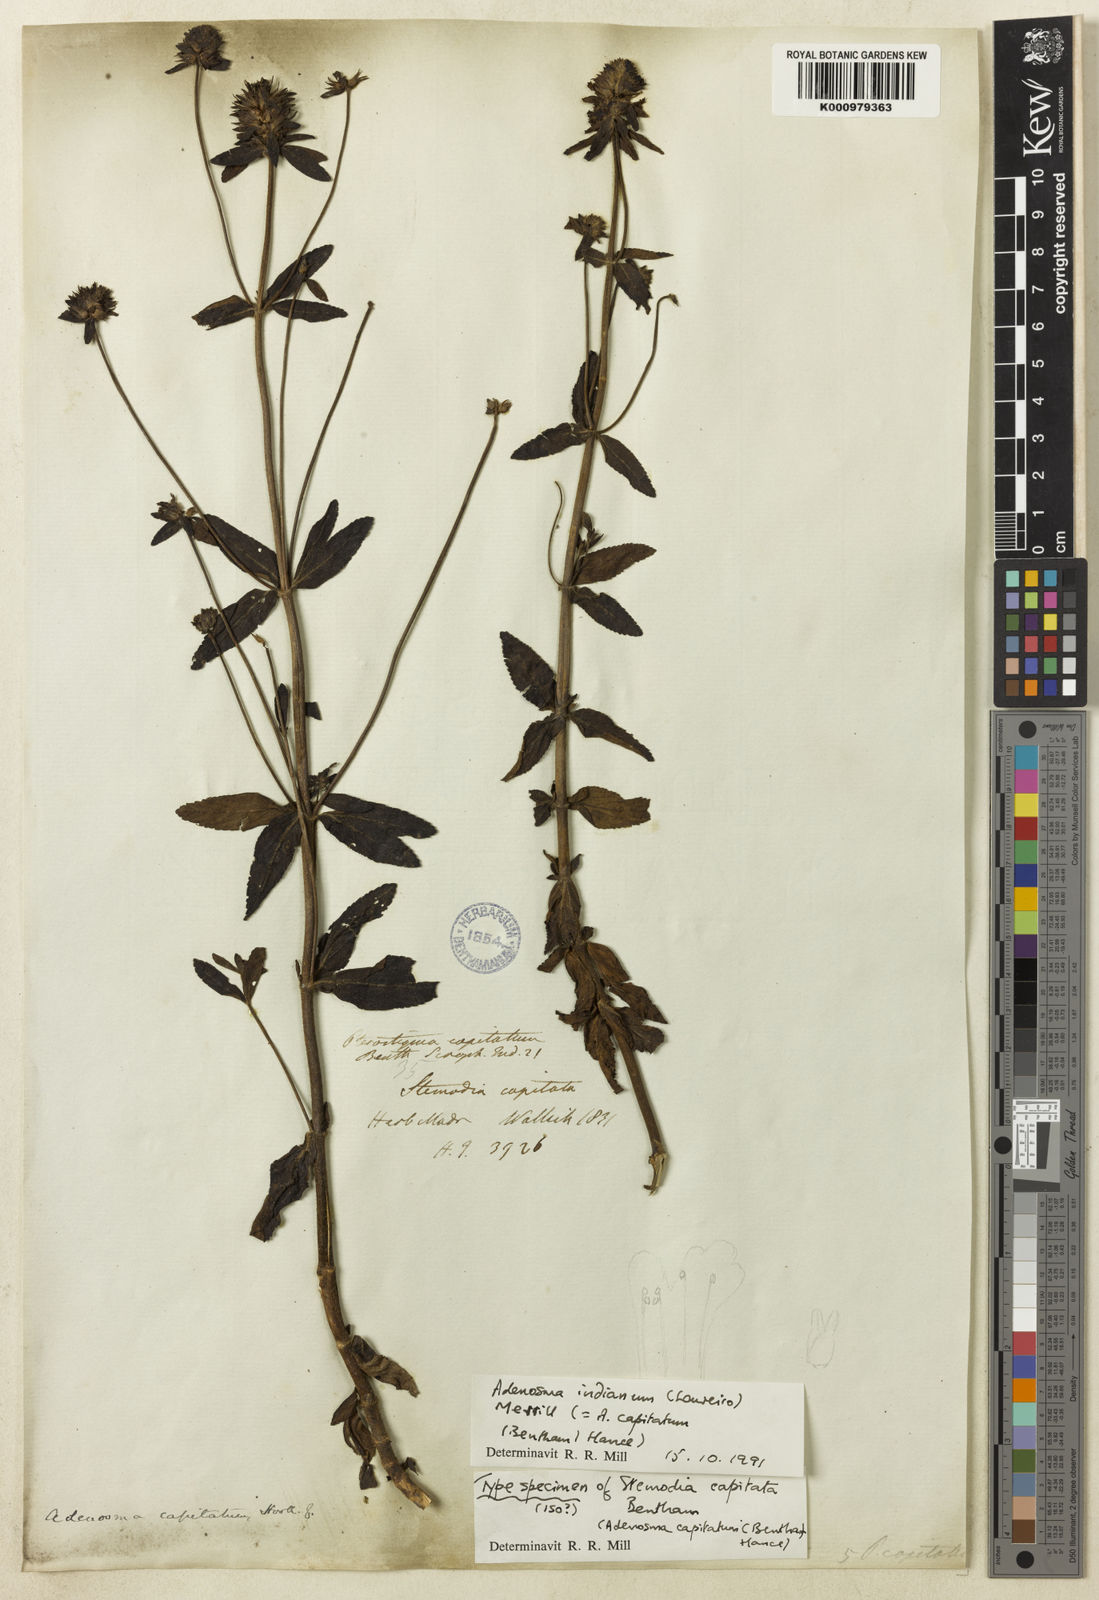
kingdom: Plantae
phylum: Tracheophyta
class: Magnoliopsida
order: Lamiales
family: Plantaginaceae
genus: Adenosma
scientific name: Adenosma indiana
